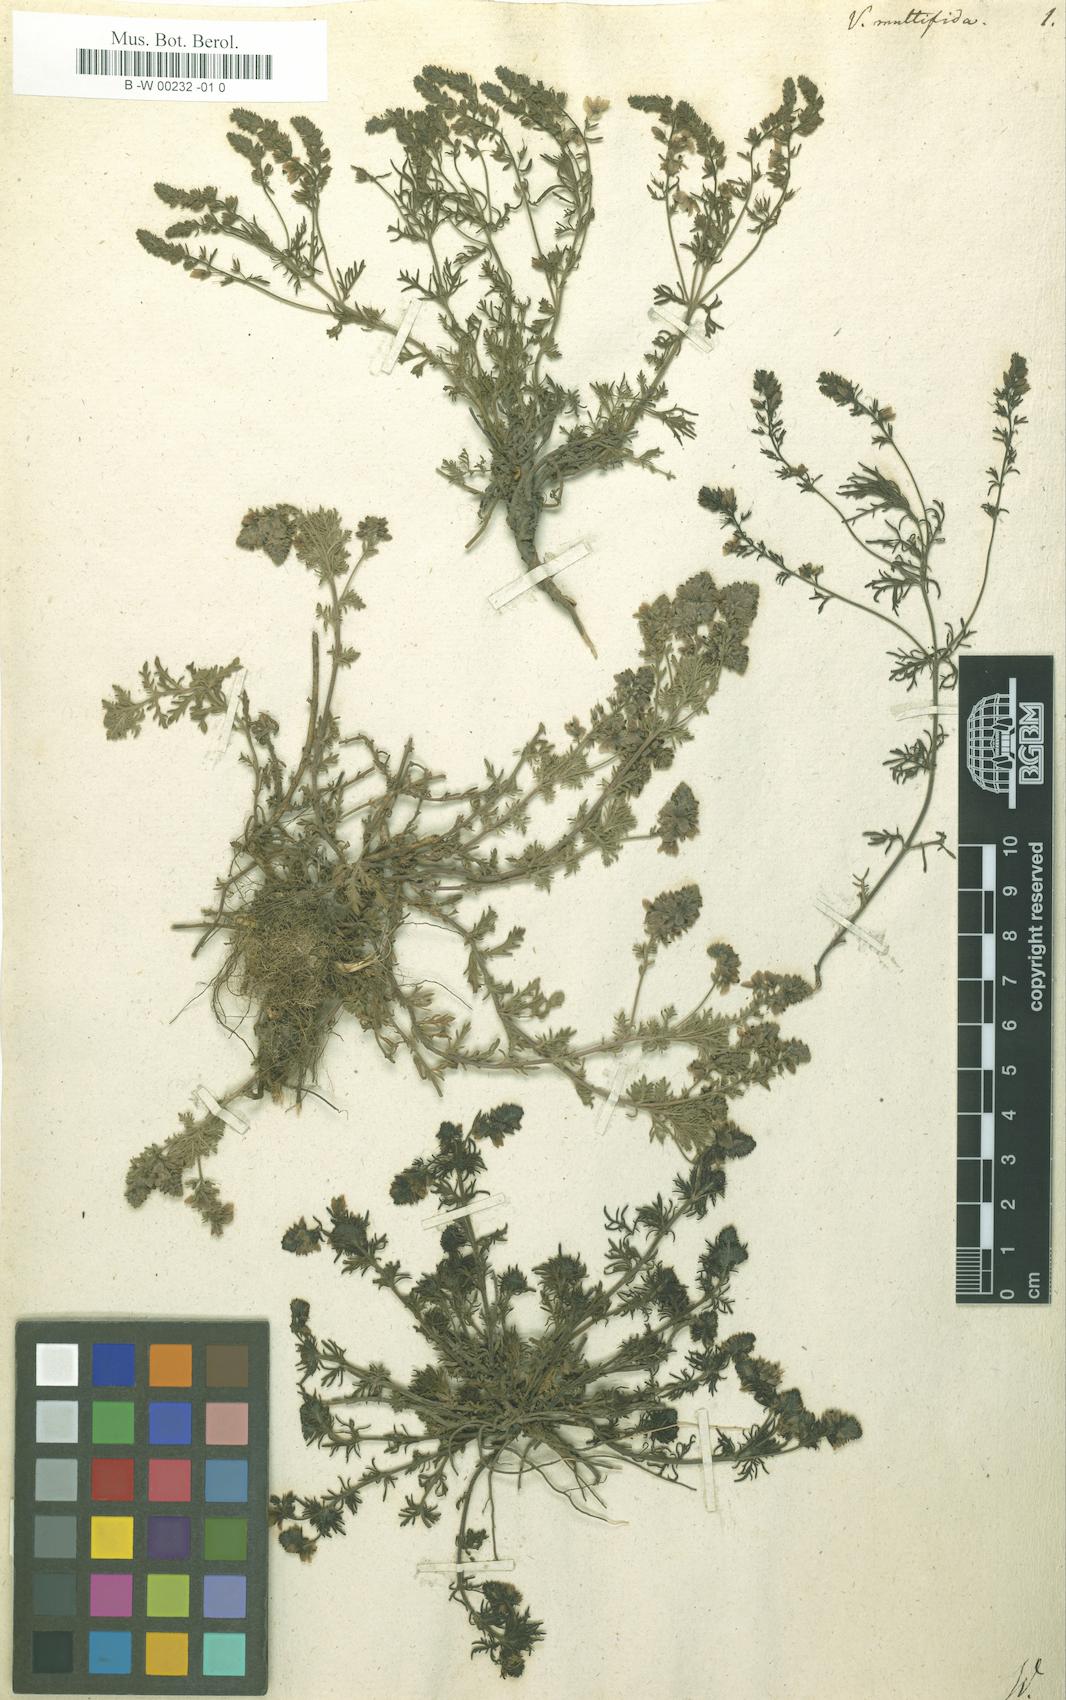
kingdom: Plantae
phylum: Tracheophyta
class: Magnoliopsida
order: Lamiales
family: Plantaginaceae
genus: Veronica
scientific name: Veronica multifida
